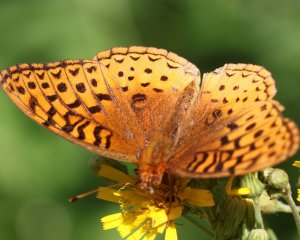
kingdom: Animalia
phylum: Arthropoda
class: Insecta
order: Lepidoptera
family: Nymphalidae
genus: Speyeria
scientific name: Speyeria cybele
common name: Great Spangled Fritillary
